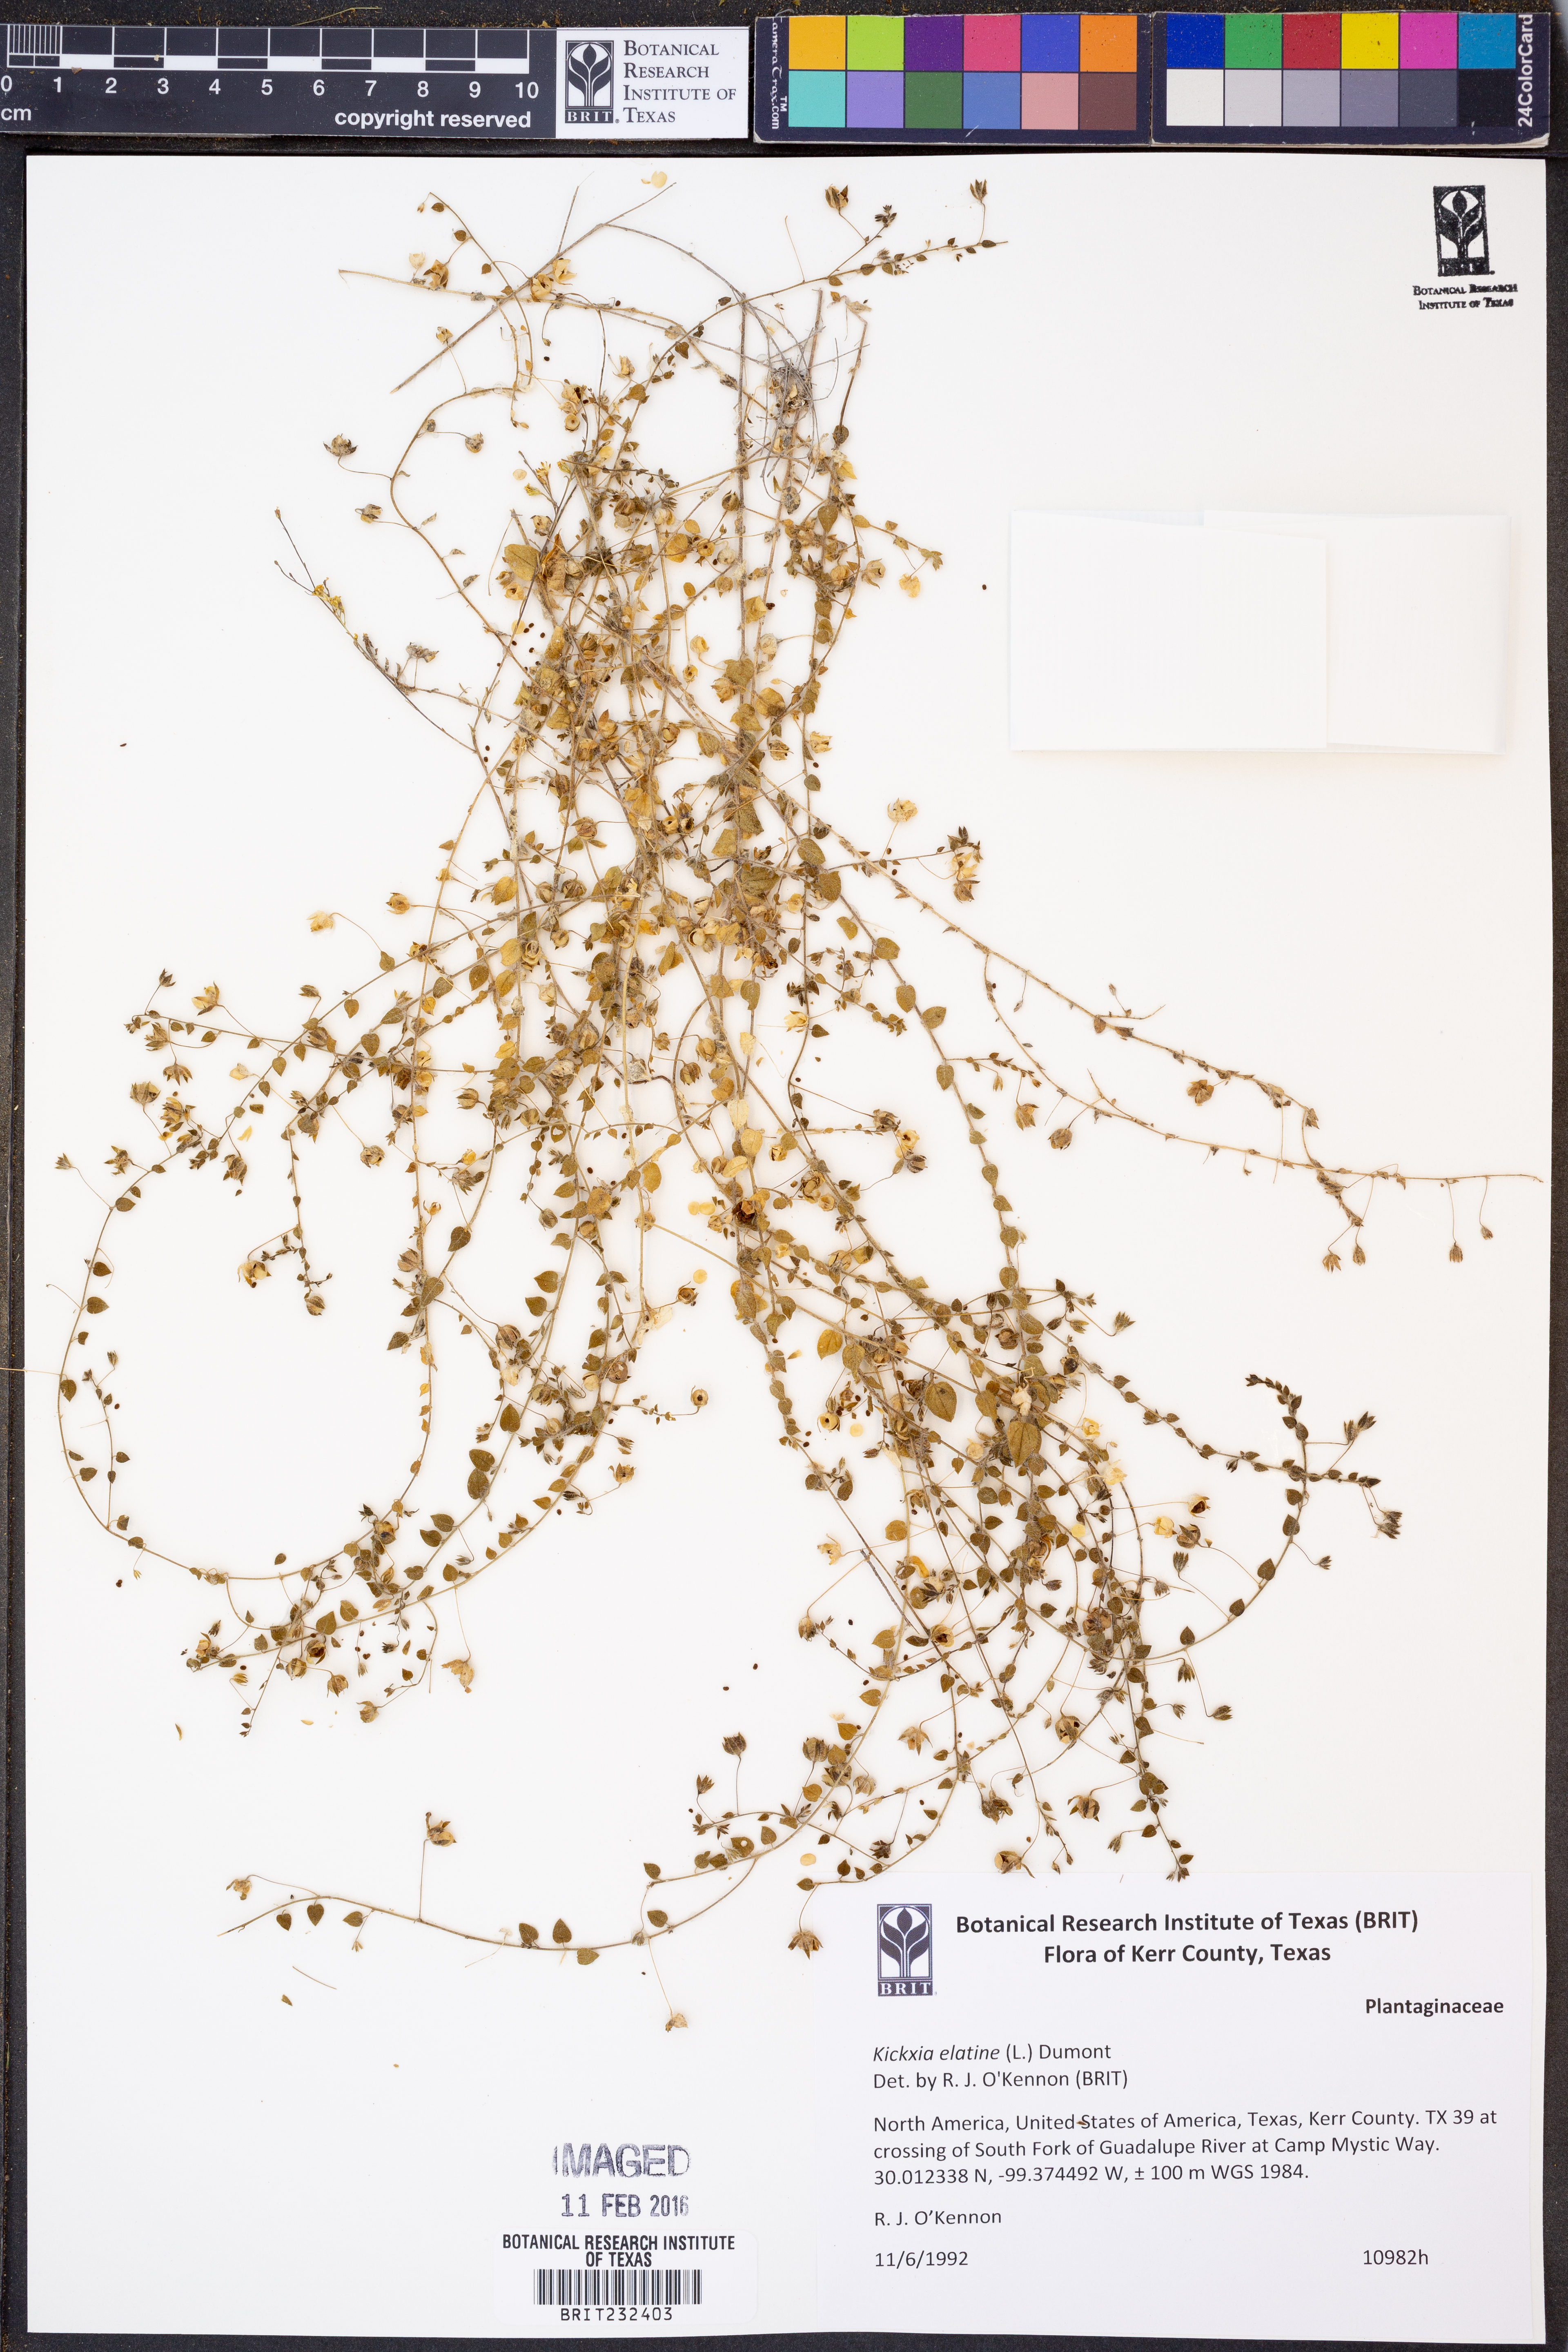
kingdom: Plantae
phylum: Tracheophyta
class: Magnoliopsida
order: Lamiales
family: Plantaginaceae
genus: Kickxia
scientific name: Kickxia elatine
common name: Sharp-leaved fluellen
